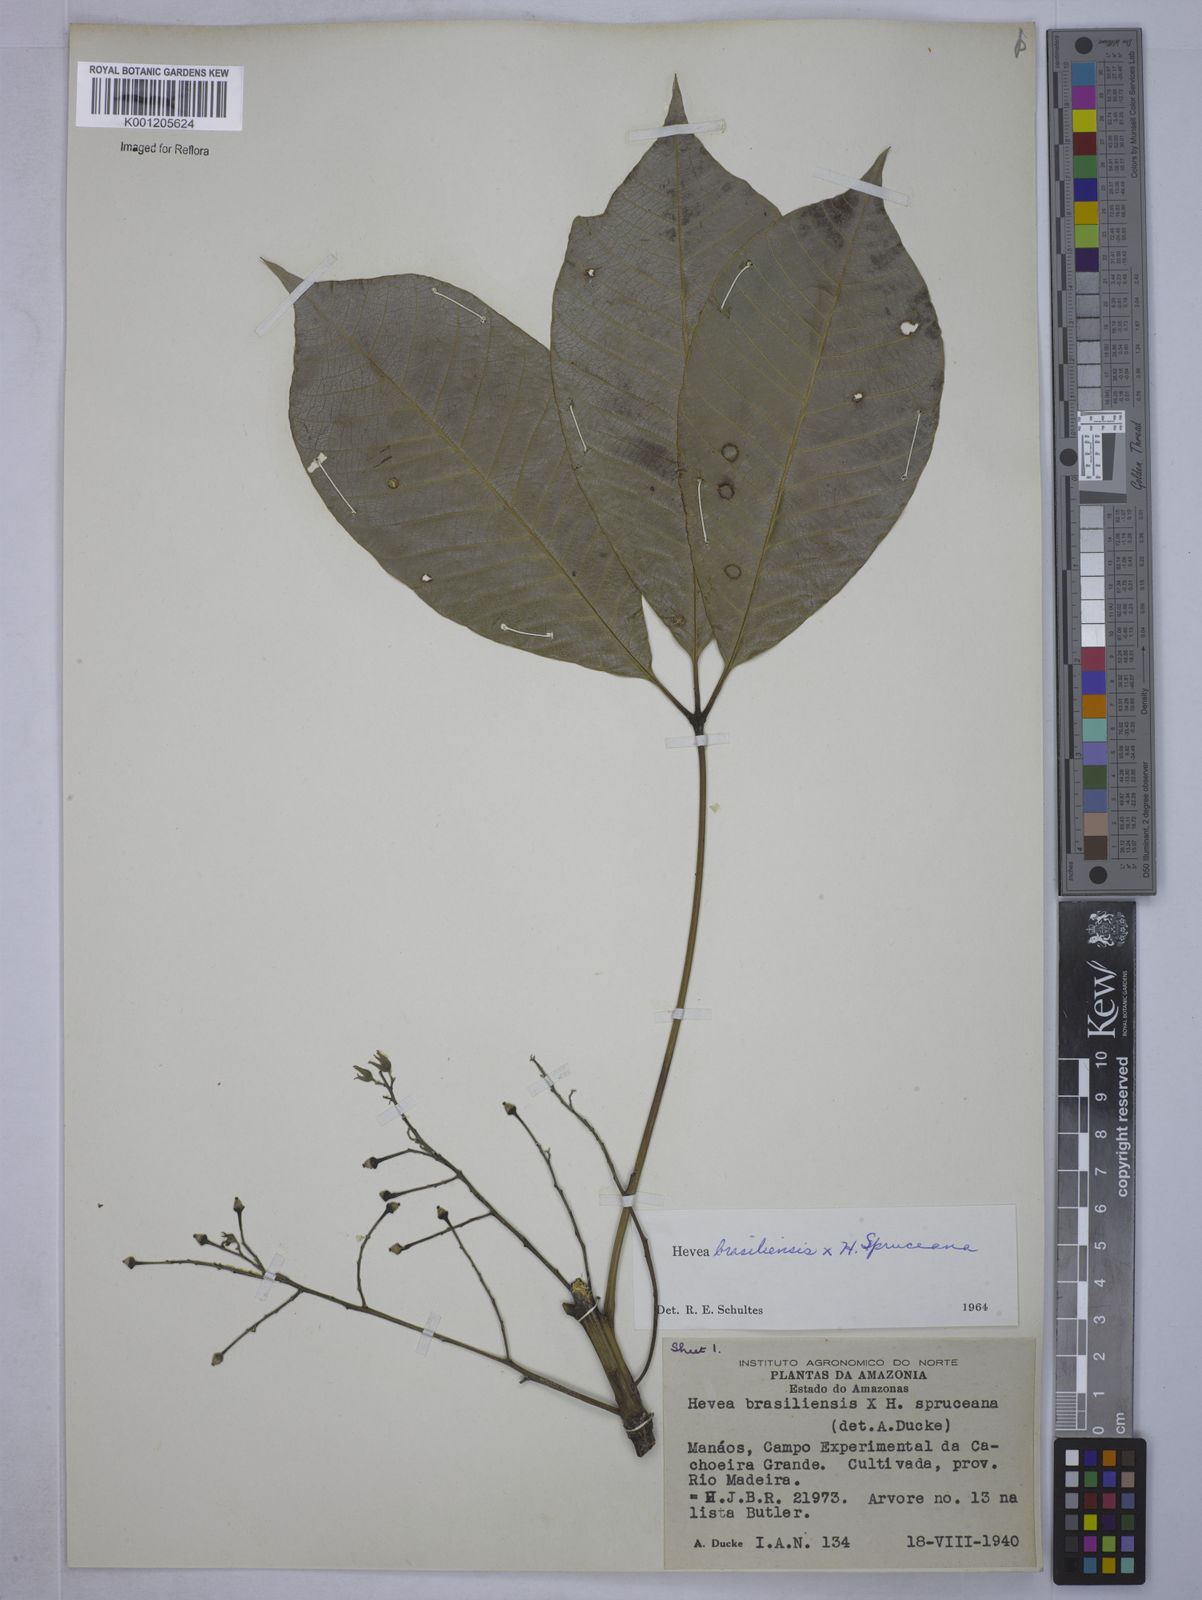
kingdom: Plantae
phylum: Tracheophyta
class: Magnoliopsida
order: Malpighiales
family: Euphorbiaceae
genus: Hevea
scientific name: Hevea
